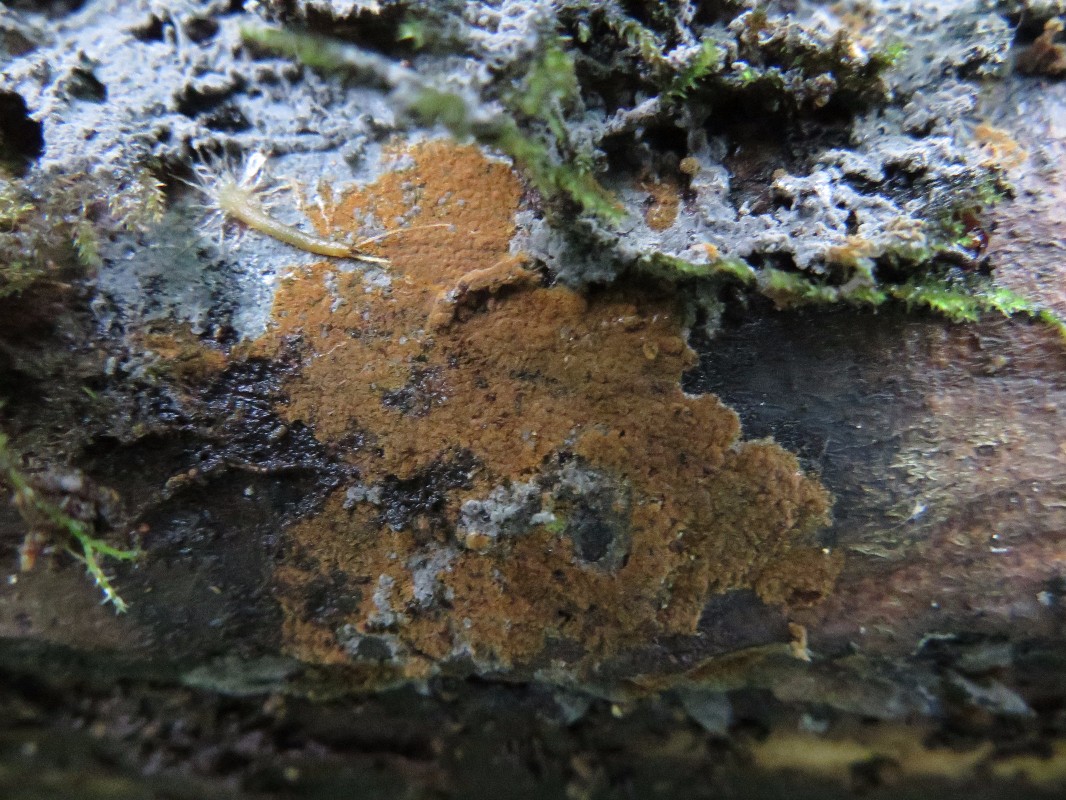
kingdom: Fungi
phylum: Basidiomycota
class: Agaricomycetes
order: Thelephorales
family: Thelephoraceae
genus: Tomentella
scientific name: Tomentella
